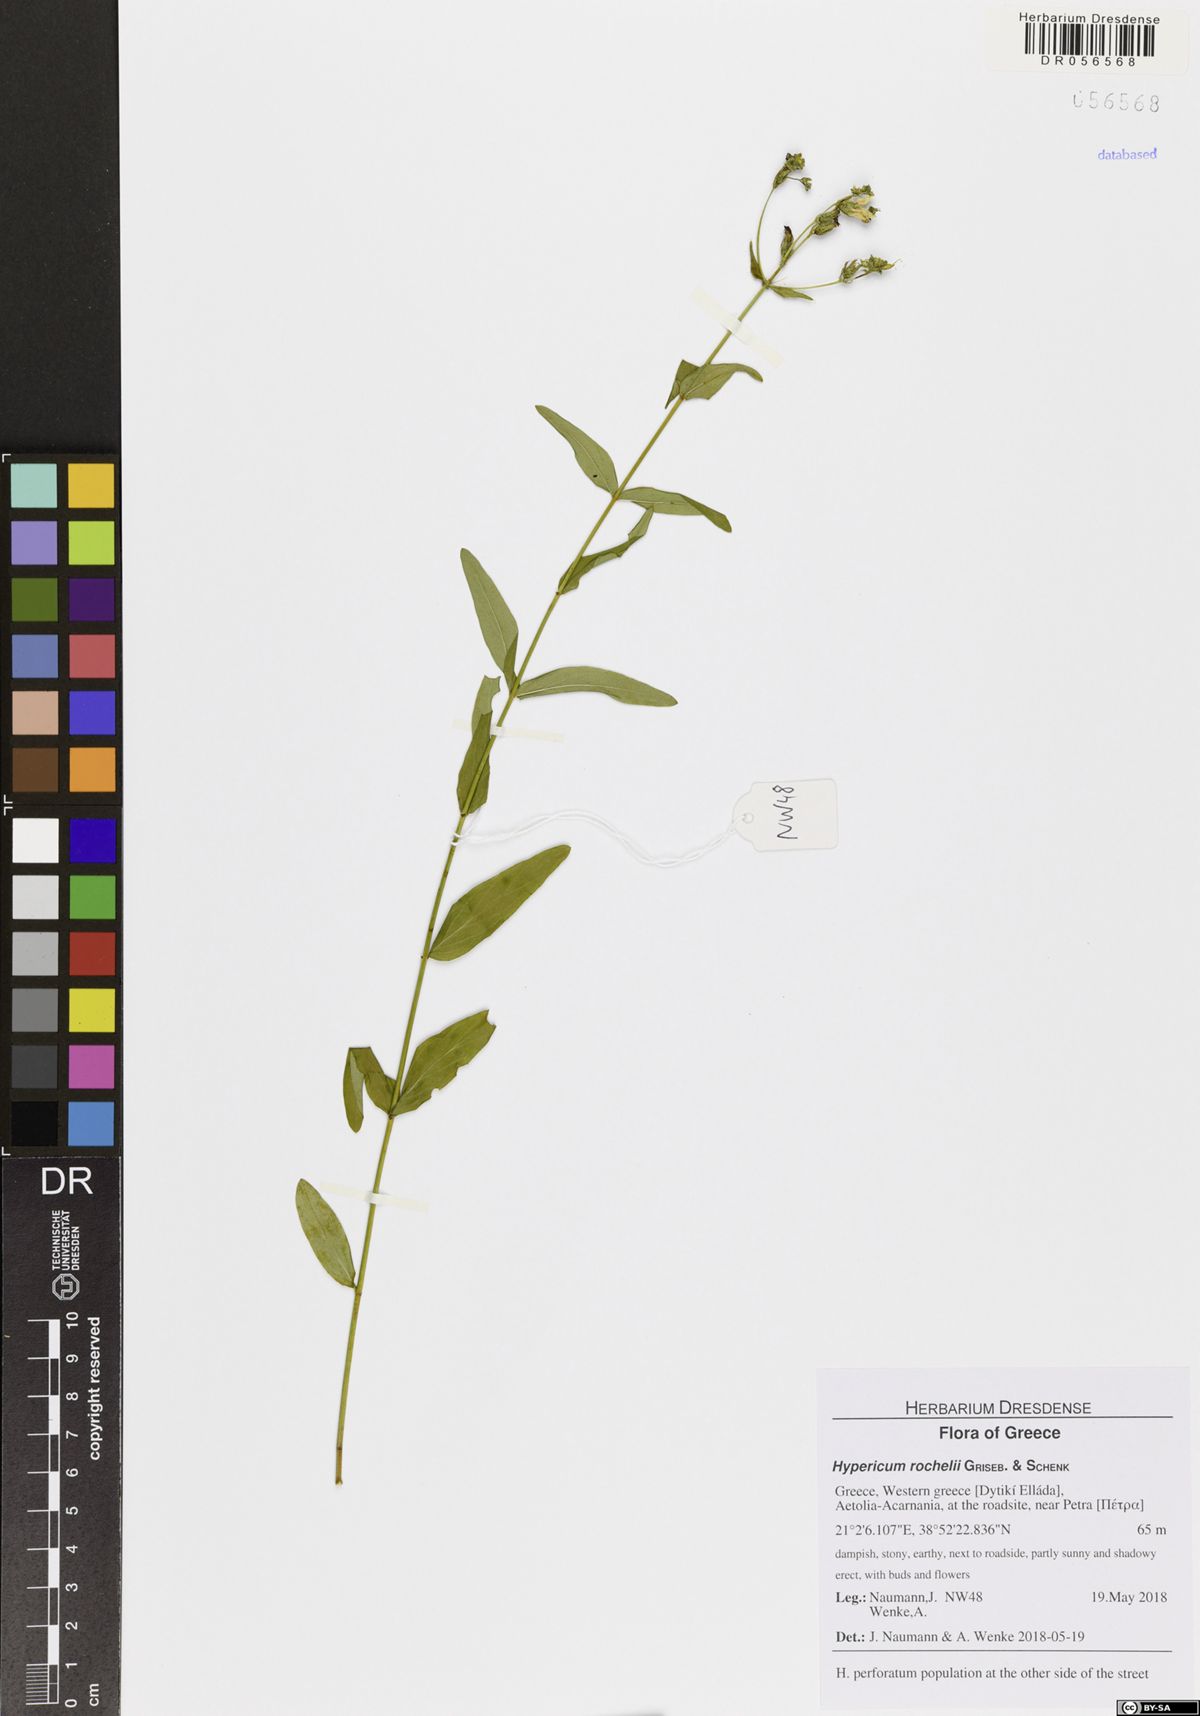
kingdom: Plantae
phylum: Tracheophyta
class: Magnoliopsida
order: Malpighiales
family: Hypericaceae
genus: Hypericum
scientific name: Hypericum rochelii
